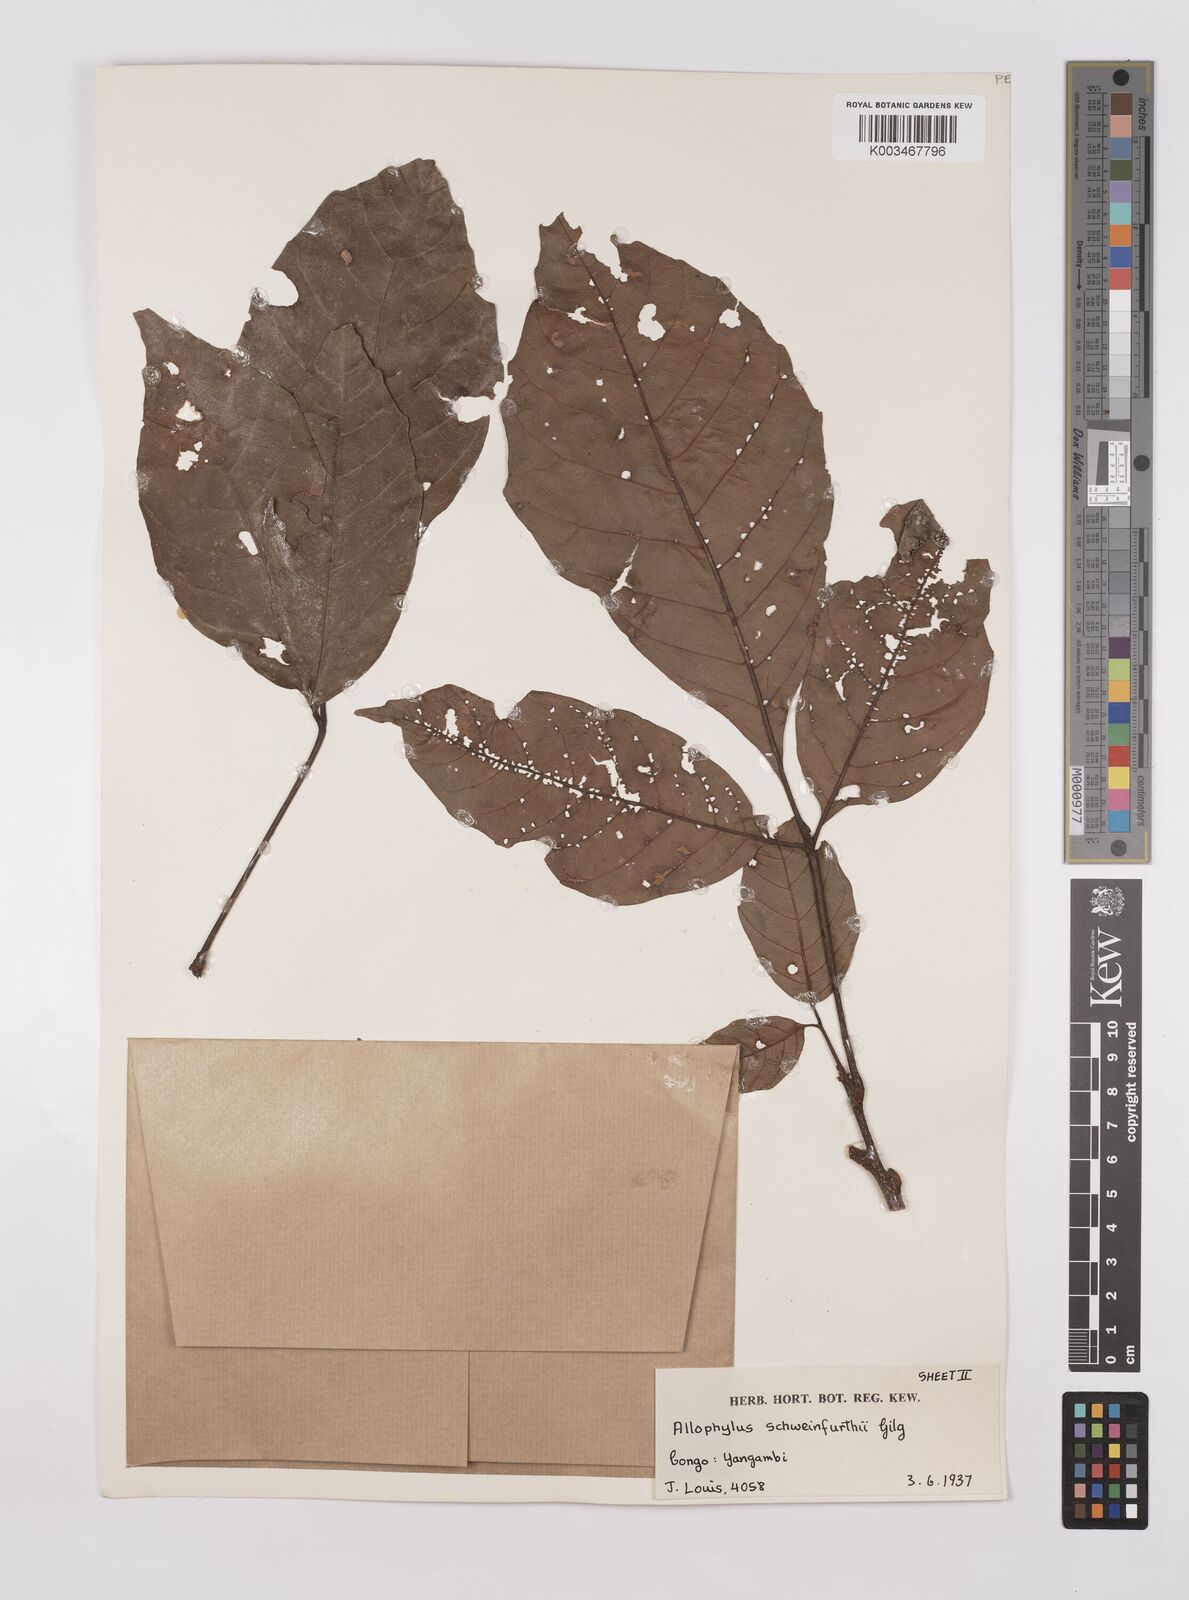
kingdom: Plantae
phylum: Tracheophyta
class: Magnoliopsida
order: Sapindales
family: Sapindaceae
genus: Allophylus
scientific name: Allophylus africanus
